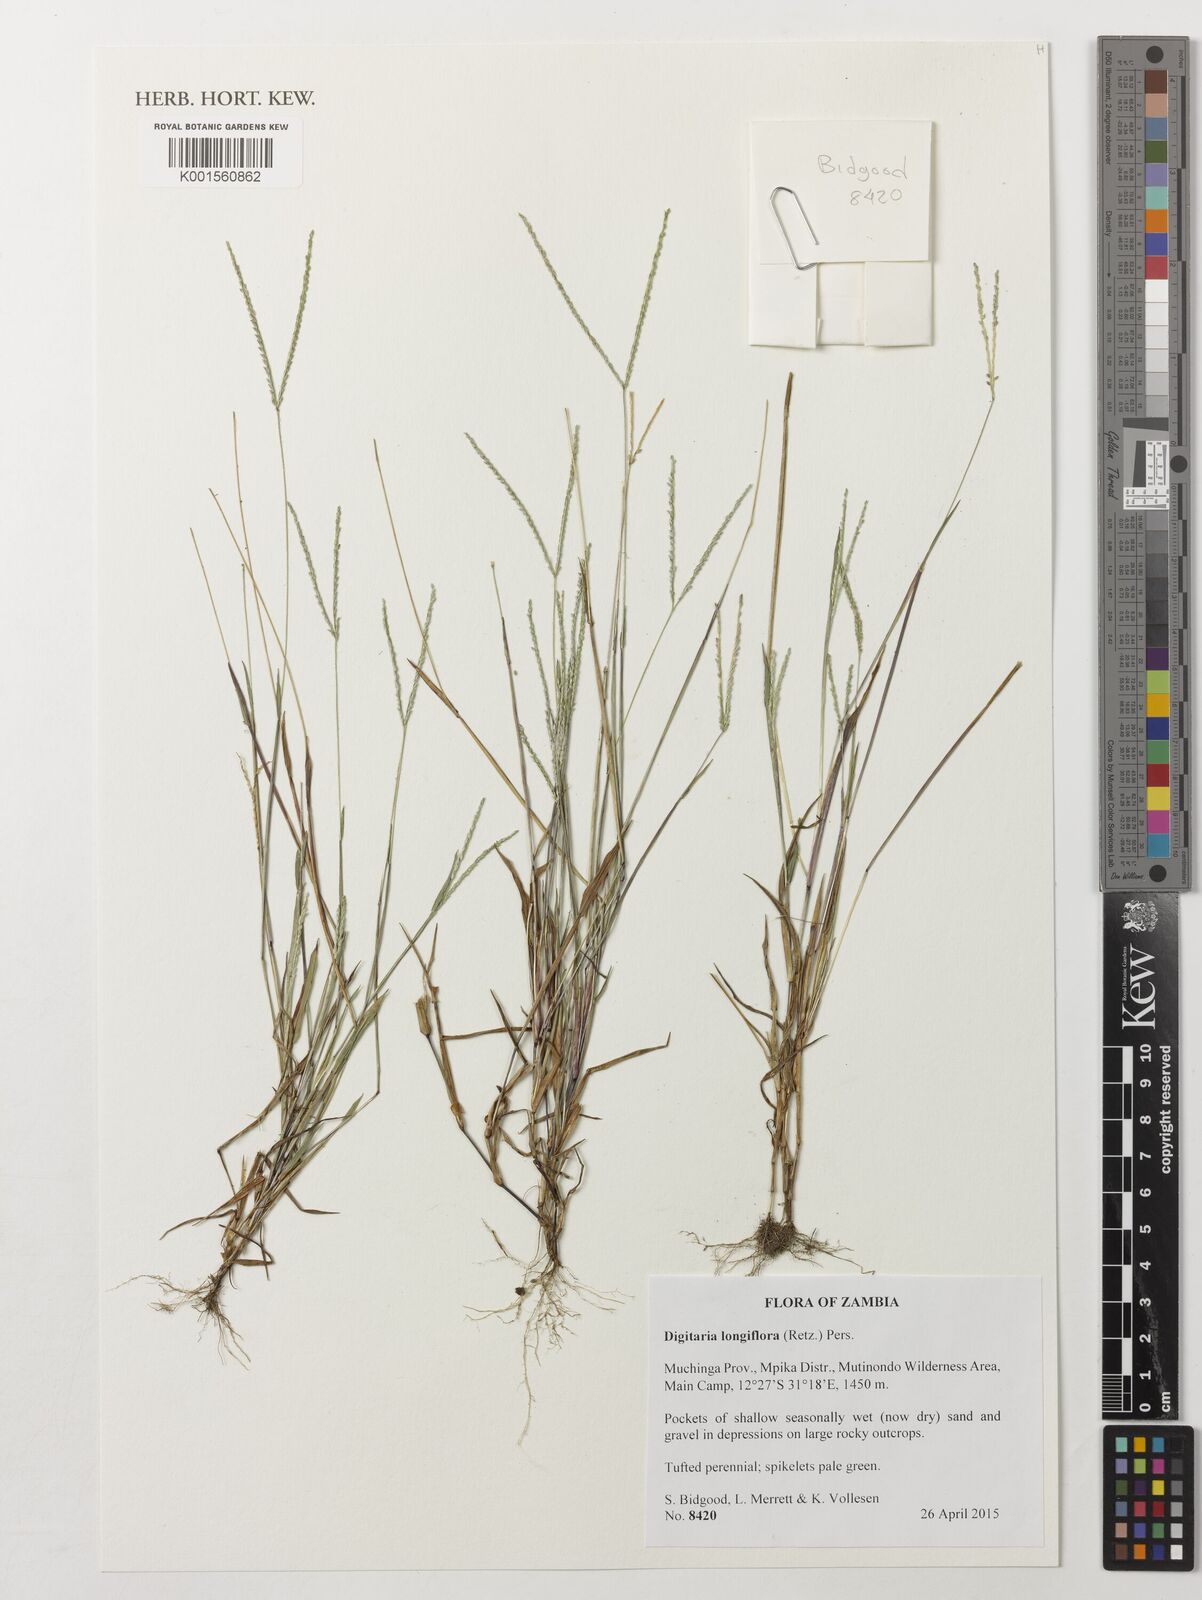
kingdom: Plantae
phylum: Tracheophyta
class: Liliopsida
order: Poales
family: Poaceae
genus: Digitaria
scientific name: Digitaria longiflora
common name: Wire crabgrass
